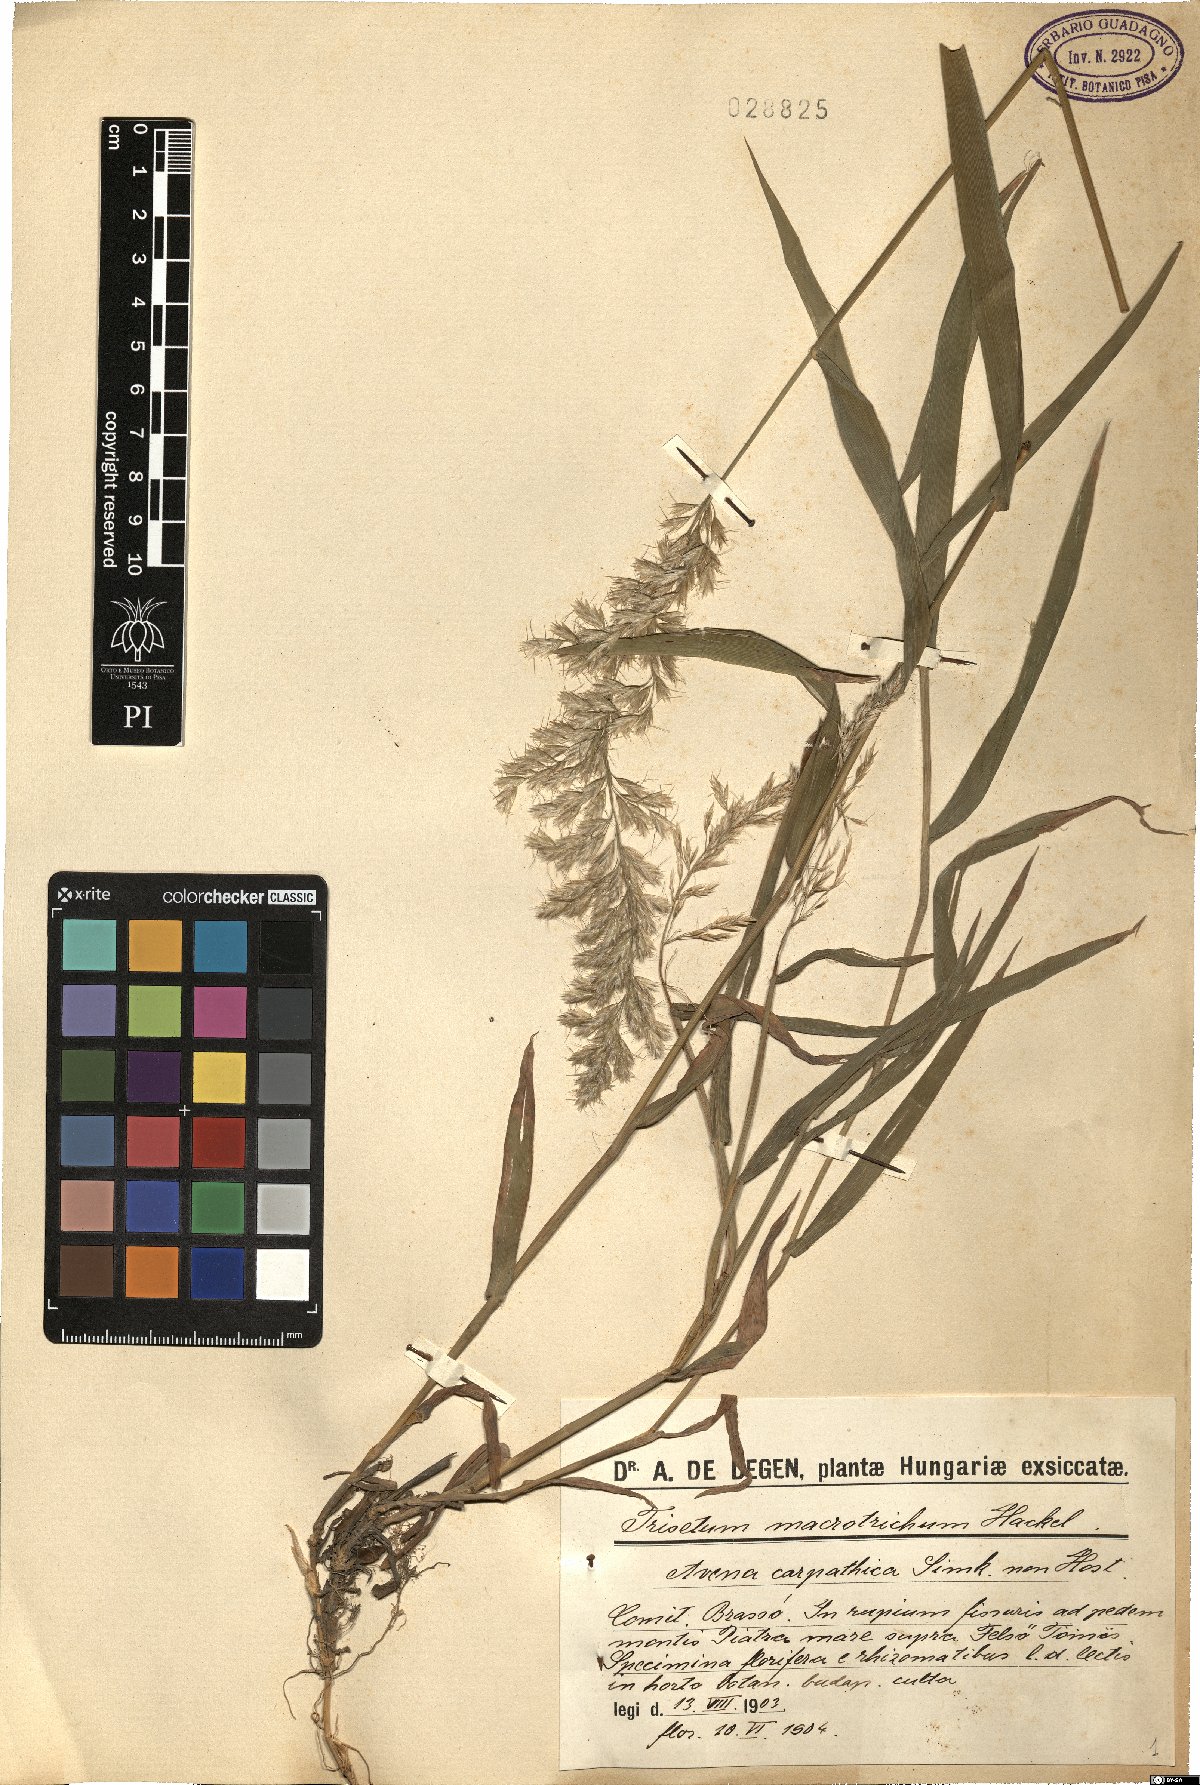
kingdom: Plantae
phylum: Tracheophyta
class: Liliopsida
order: Poales
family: Poaceae
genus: Trisetum
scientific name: Trisetum macrotrichum
